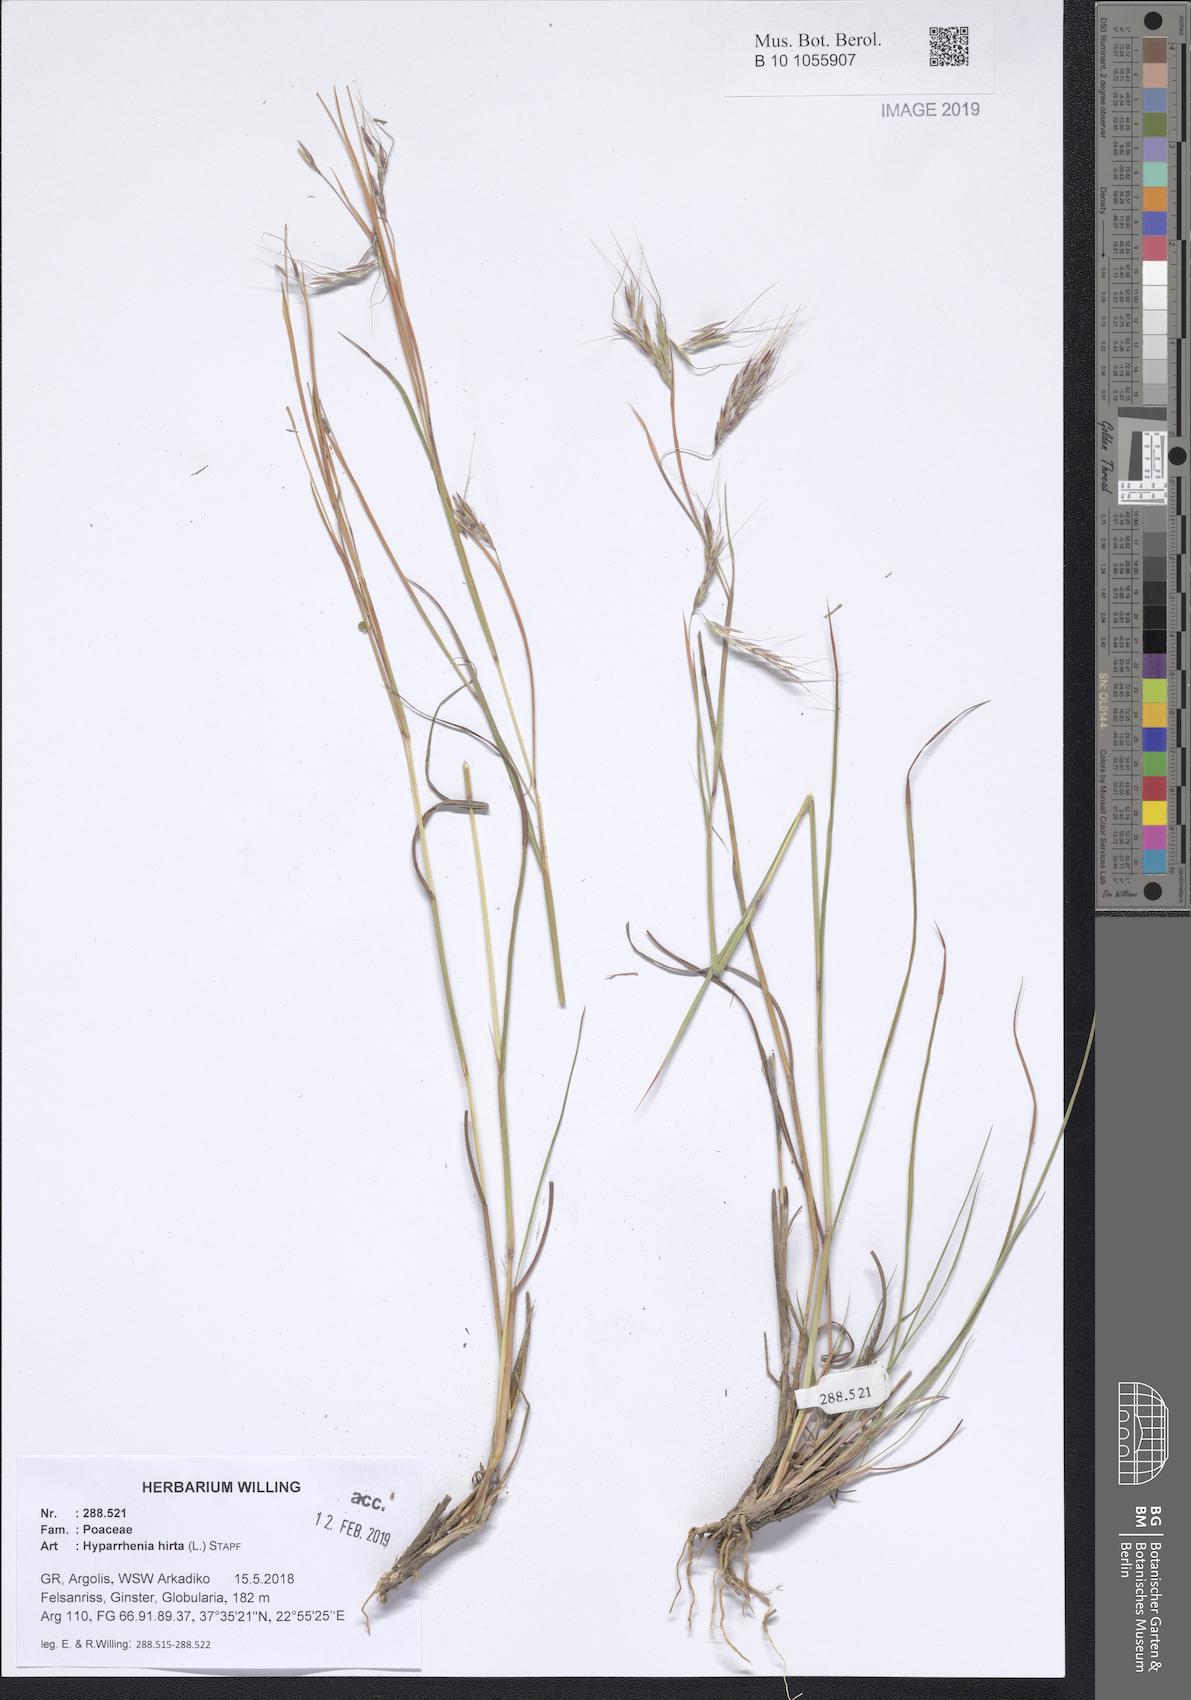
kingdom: Plantae
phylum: Tracheophyta
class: Liliopsida
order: Poales
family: Poaceae
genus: Hyparrhenia
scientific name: Hyparrhenia hirta
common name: Thatching grass
